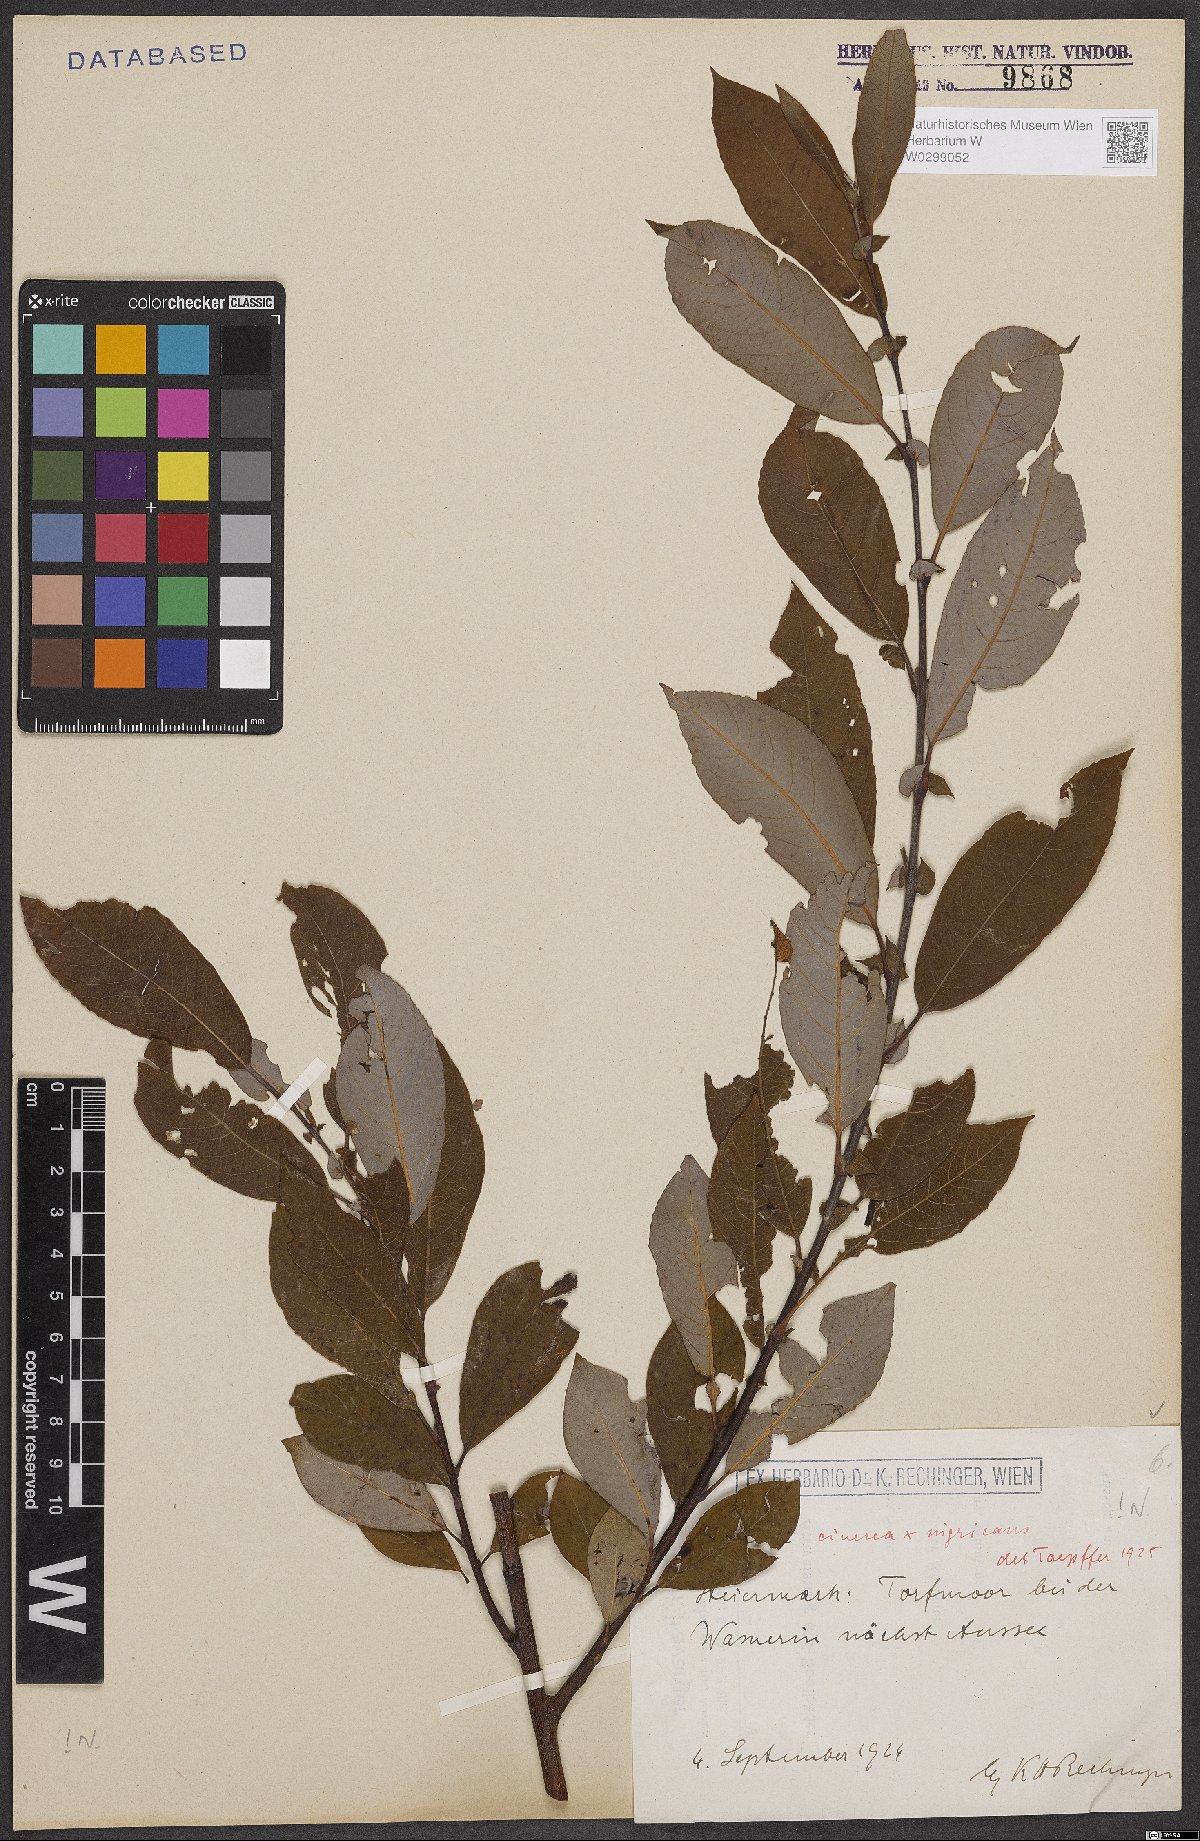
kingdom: Plantae
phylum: Tracheophyta
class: Magnoliopsida
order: Malpighiales
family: Salicaceae
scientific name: Salicaceae
